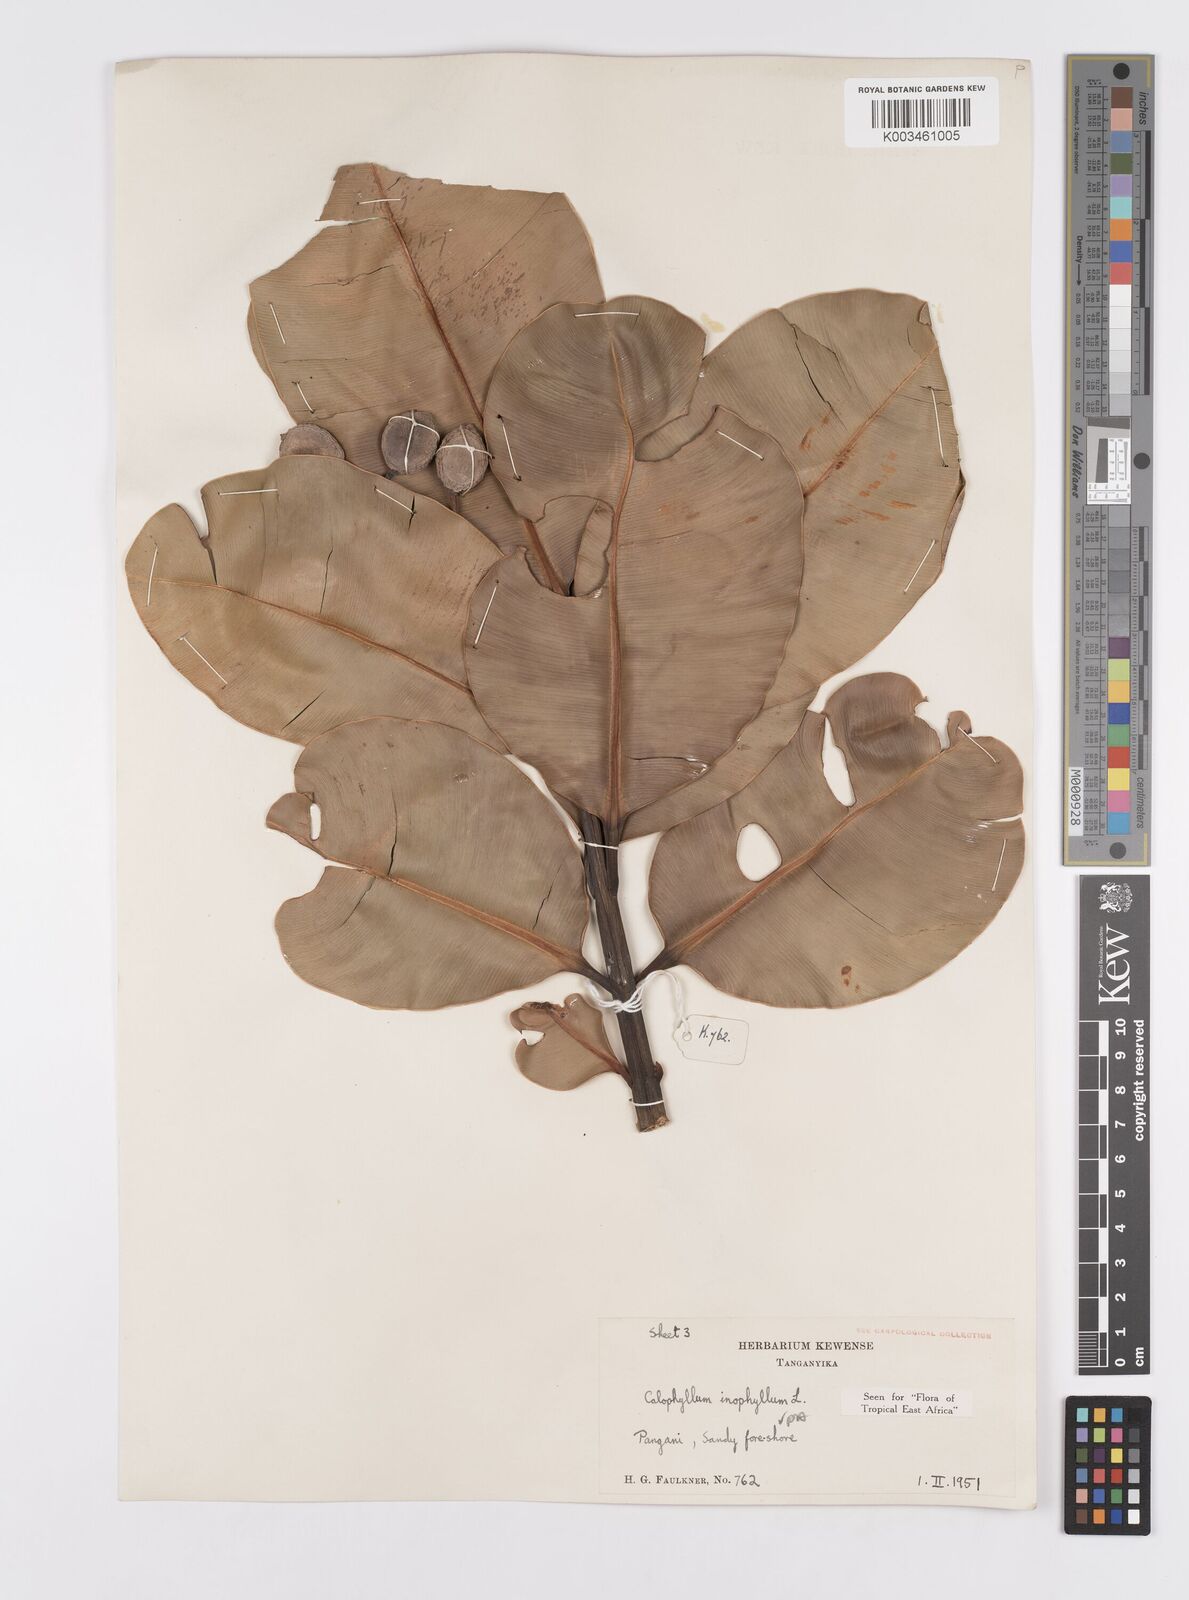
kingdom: Plantae
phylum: Tracheophyta
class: Magnoliopsida
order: Malpighiales
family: Calophyllaceae
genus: Calophyllum
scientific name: Calophyllum inophyllum
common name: Alexandrian laurel
